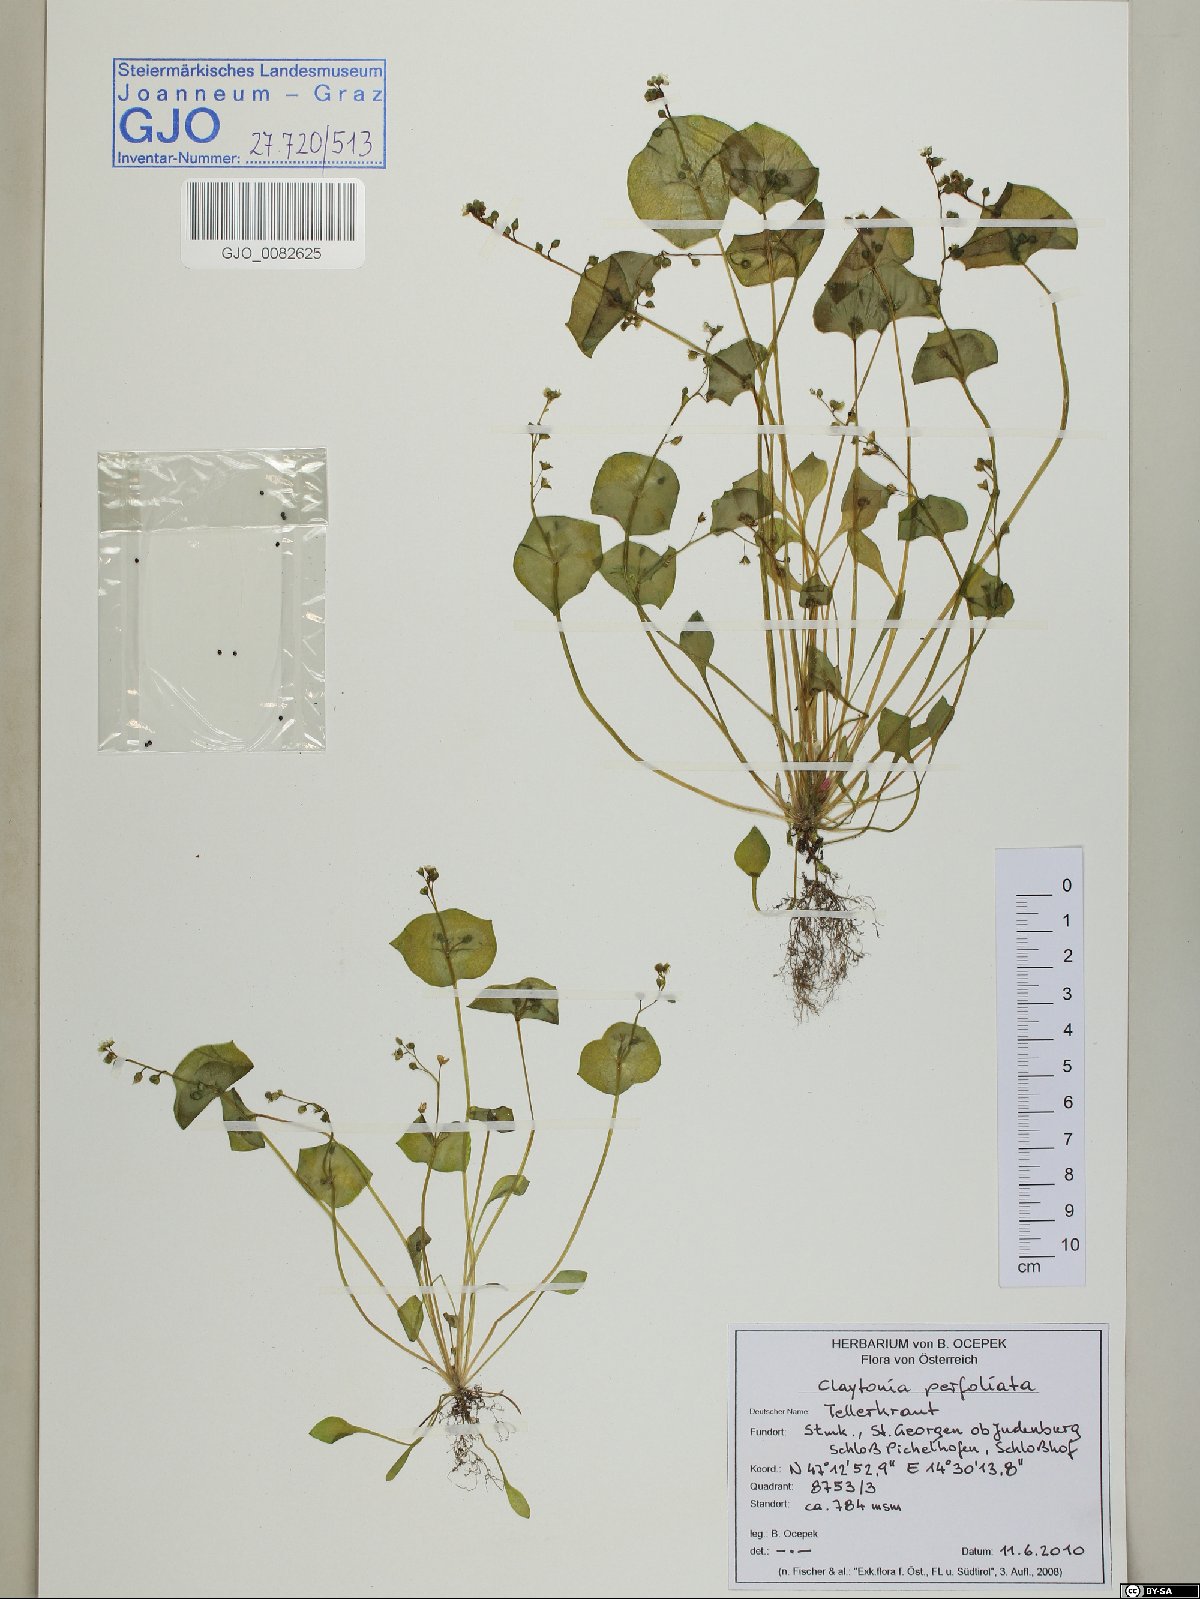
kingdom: Plantae
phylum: Tracheophyta
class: Magnoliopsida
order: Caryophyllales
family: Montiaceae
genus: Claytonia
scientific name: Claytonia perfoliata
